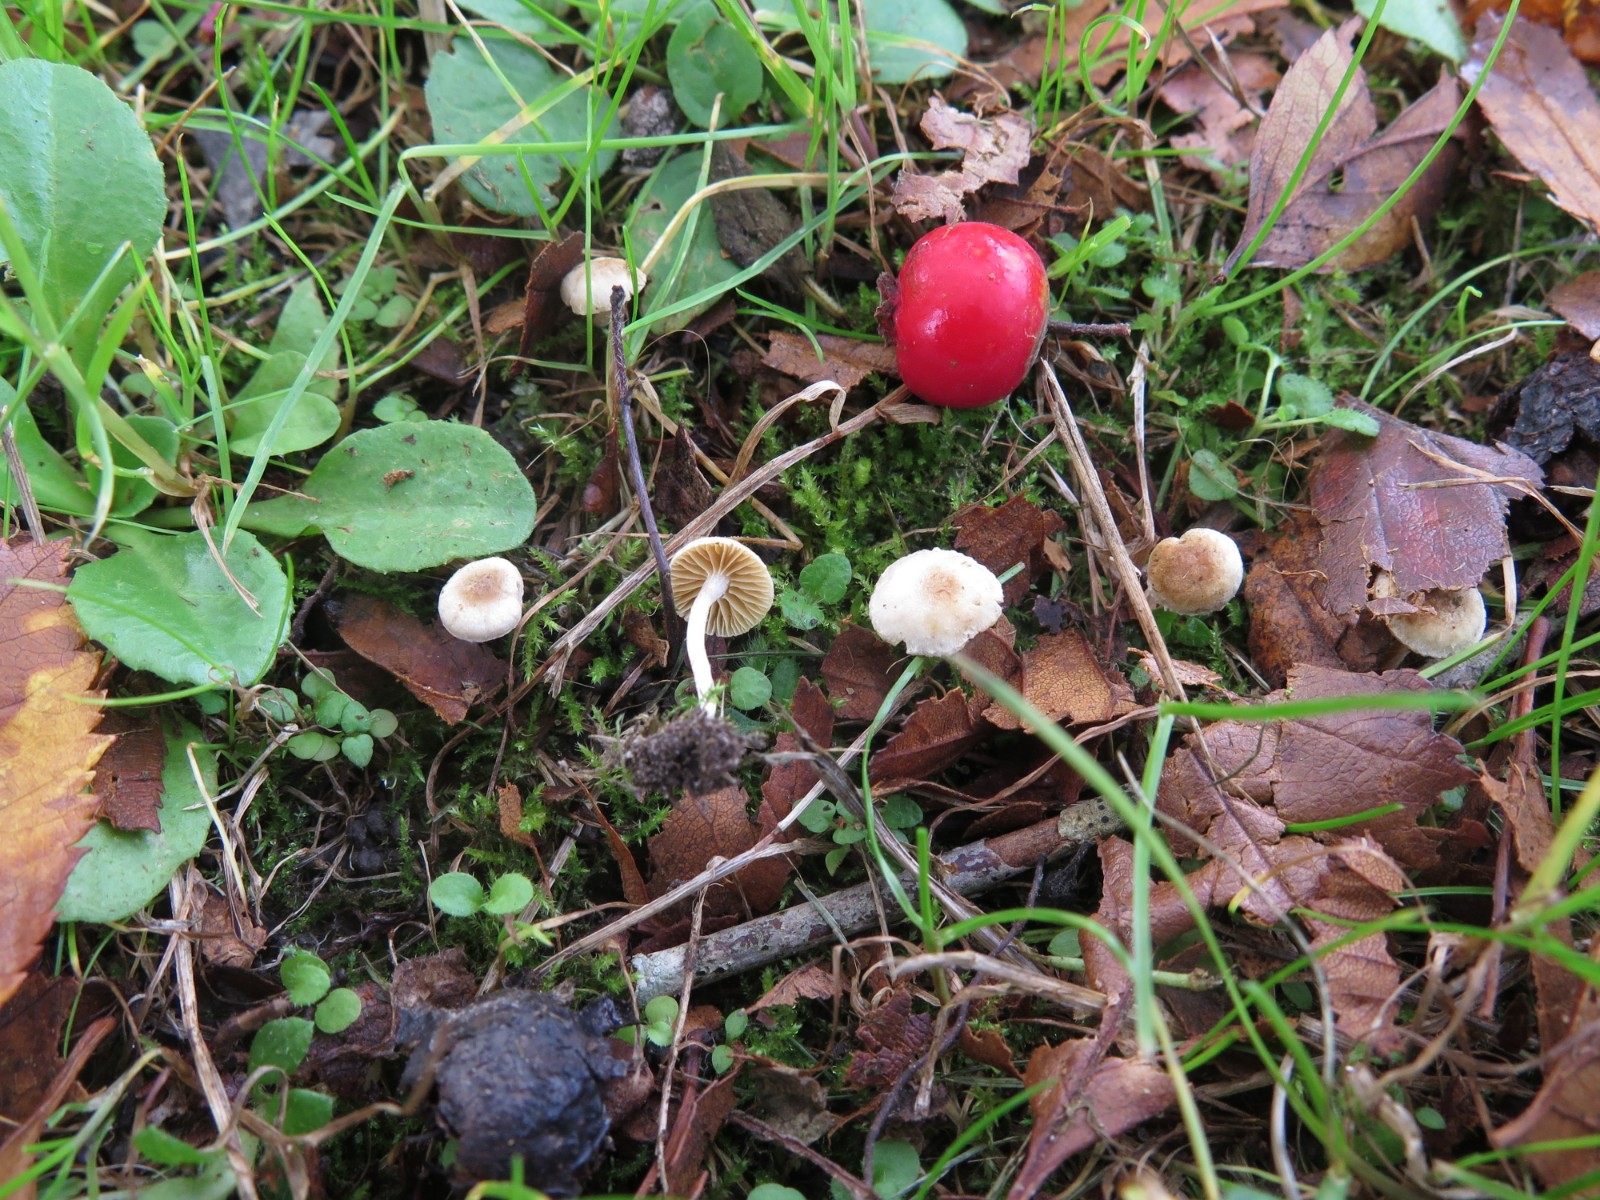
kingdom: Fungi
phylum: Basidiomycota
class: Agaricomycetes
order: Agaricales
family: Tubariaceae
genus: Tubaria
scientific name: Tubaria dispersa
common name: tjørne-fnughat
